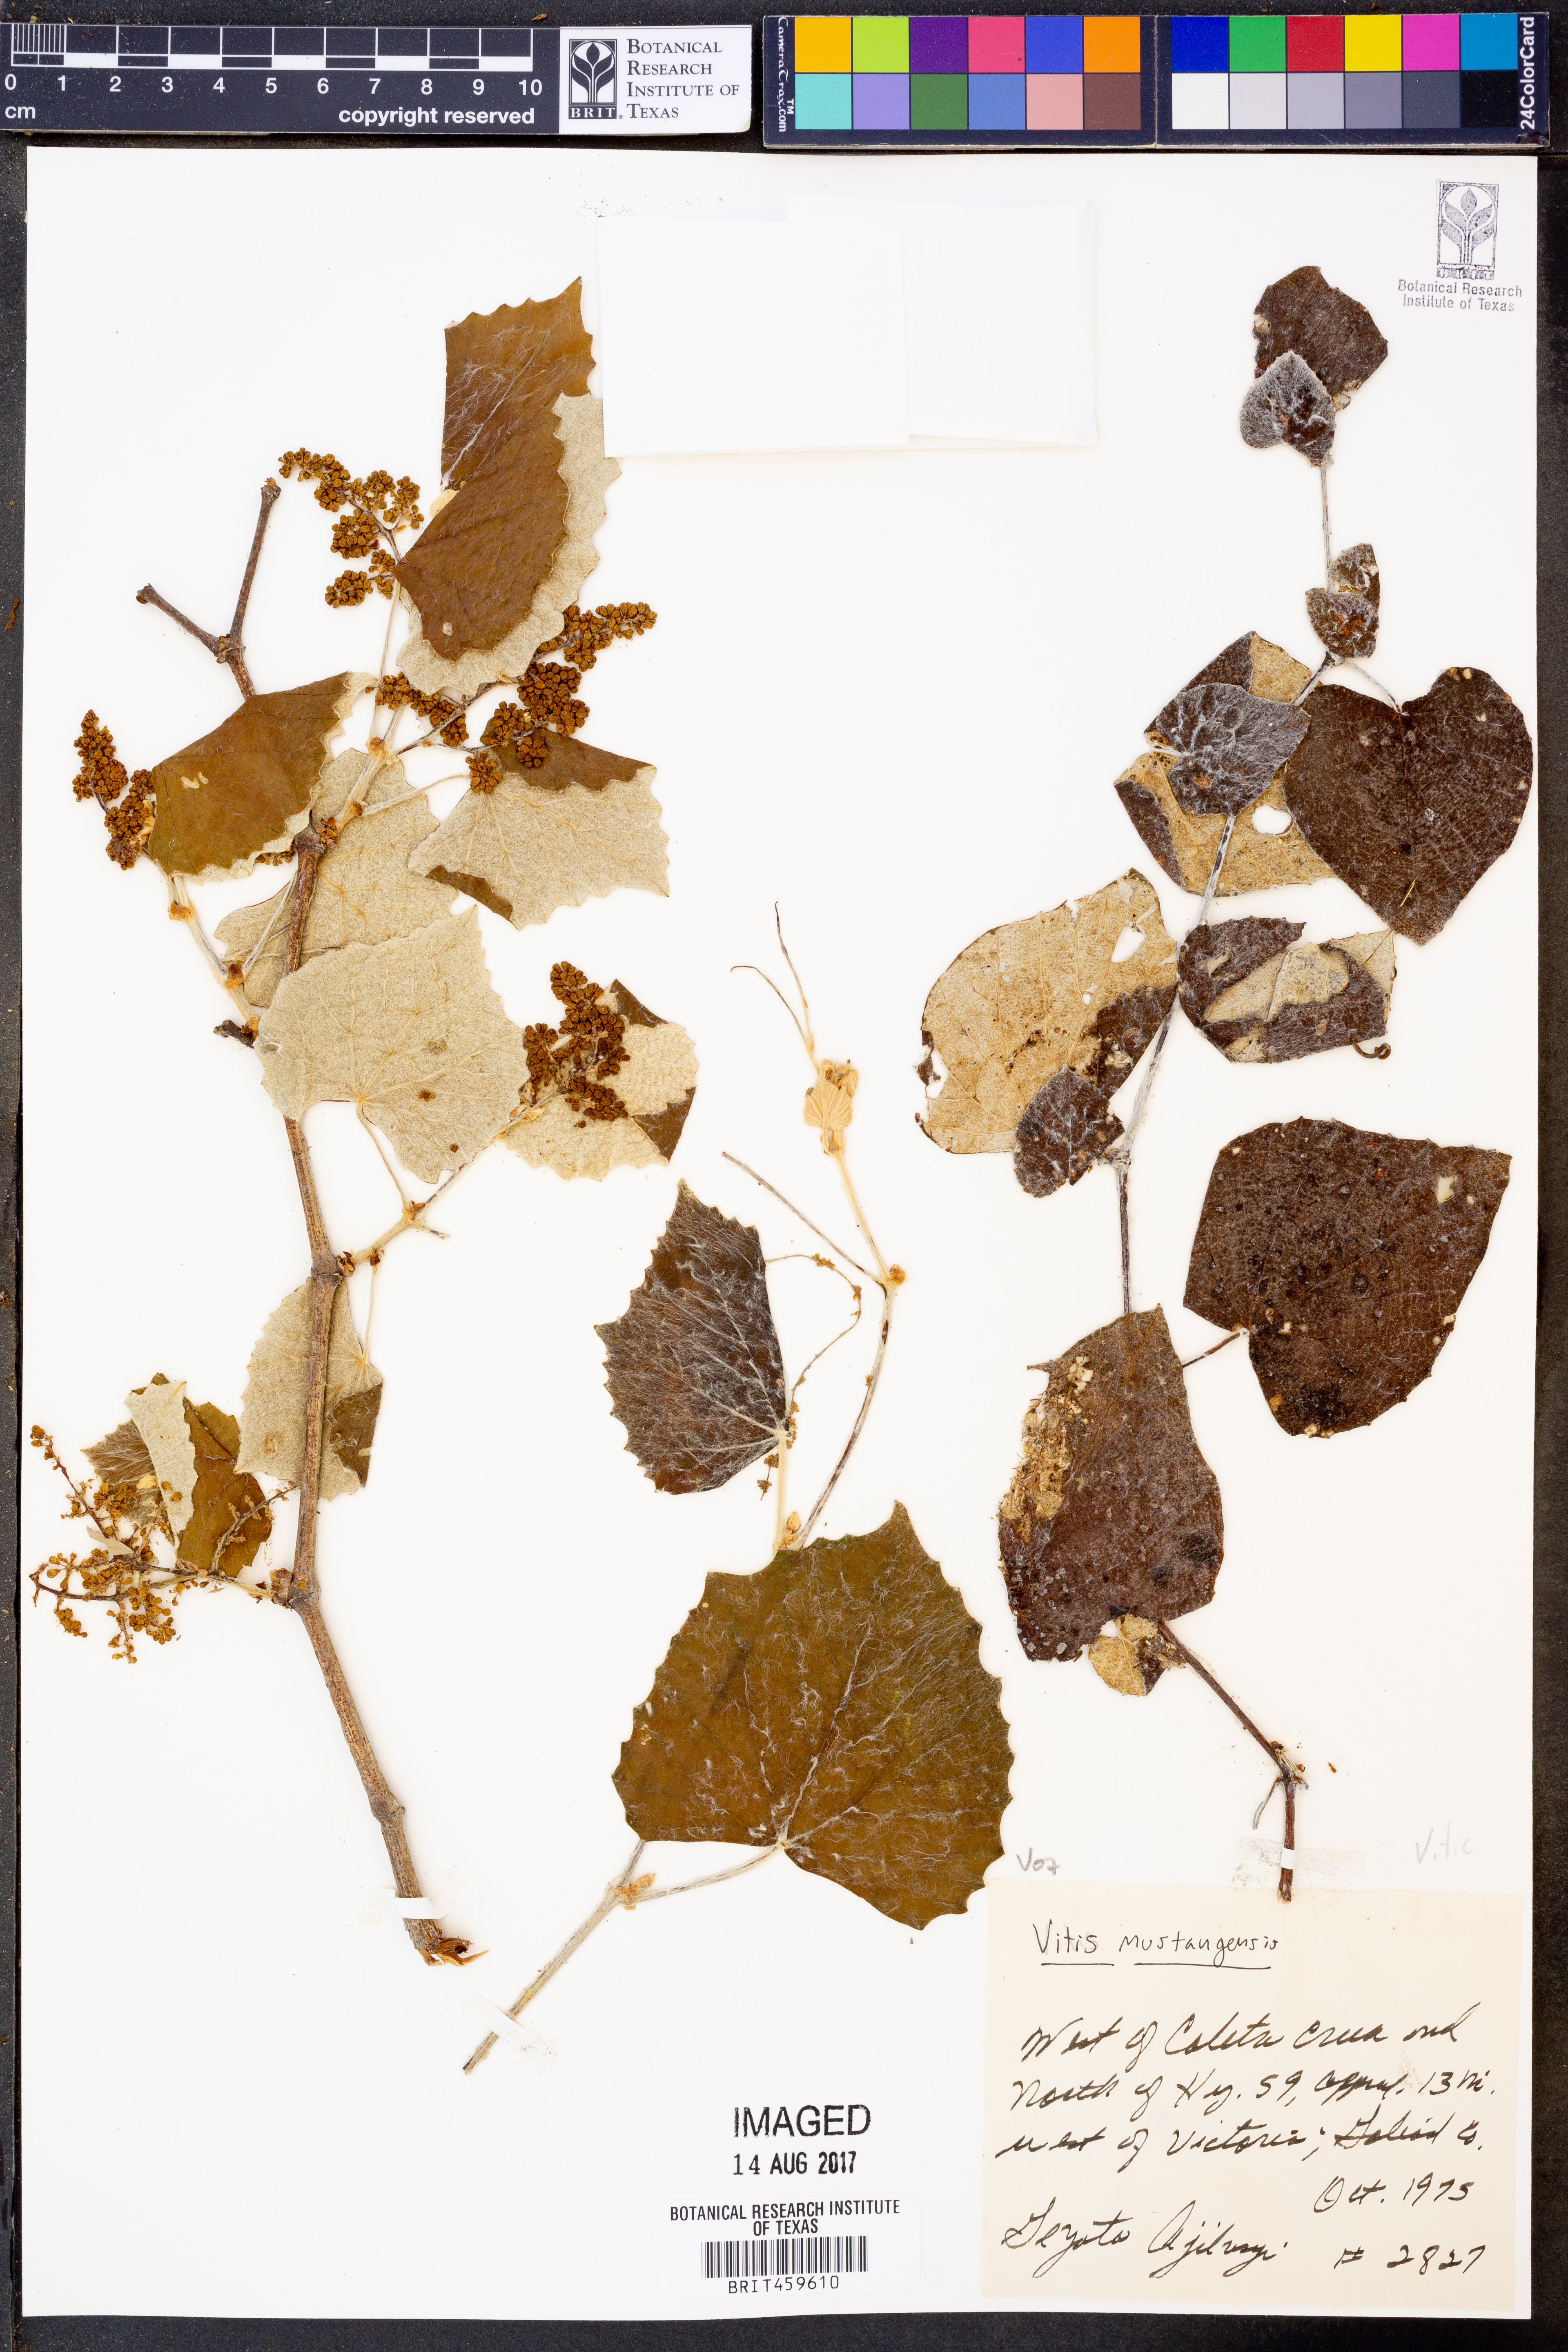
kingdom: Plantae
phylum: Tracheophyta
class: Magnoliopsida
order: Vitales
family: Vitaceae
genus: Vitis
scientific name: Vitis mustangensis
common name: Mustang grape
